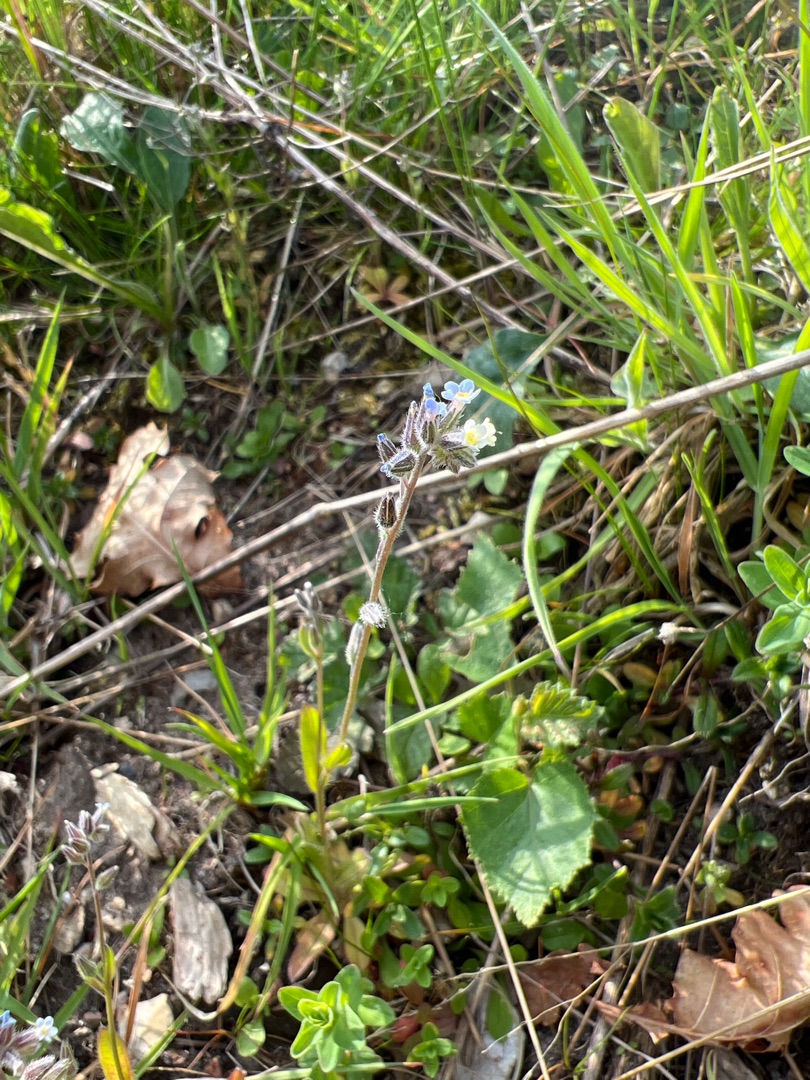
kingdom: Plantae
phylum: Tracheophyta
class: Magnoliopsida
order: Boraginales
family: Boraginaceae
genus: Myosotis
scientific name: Myosotis discolor
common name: Forskelligfarvet forglemmigej
